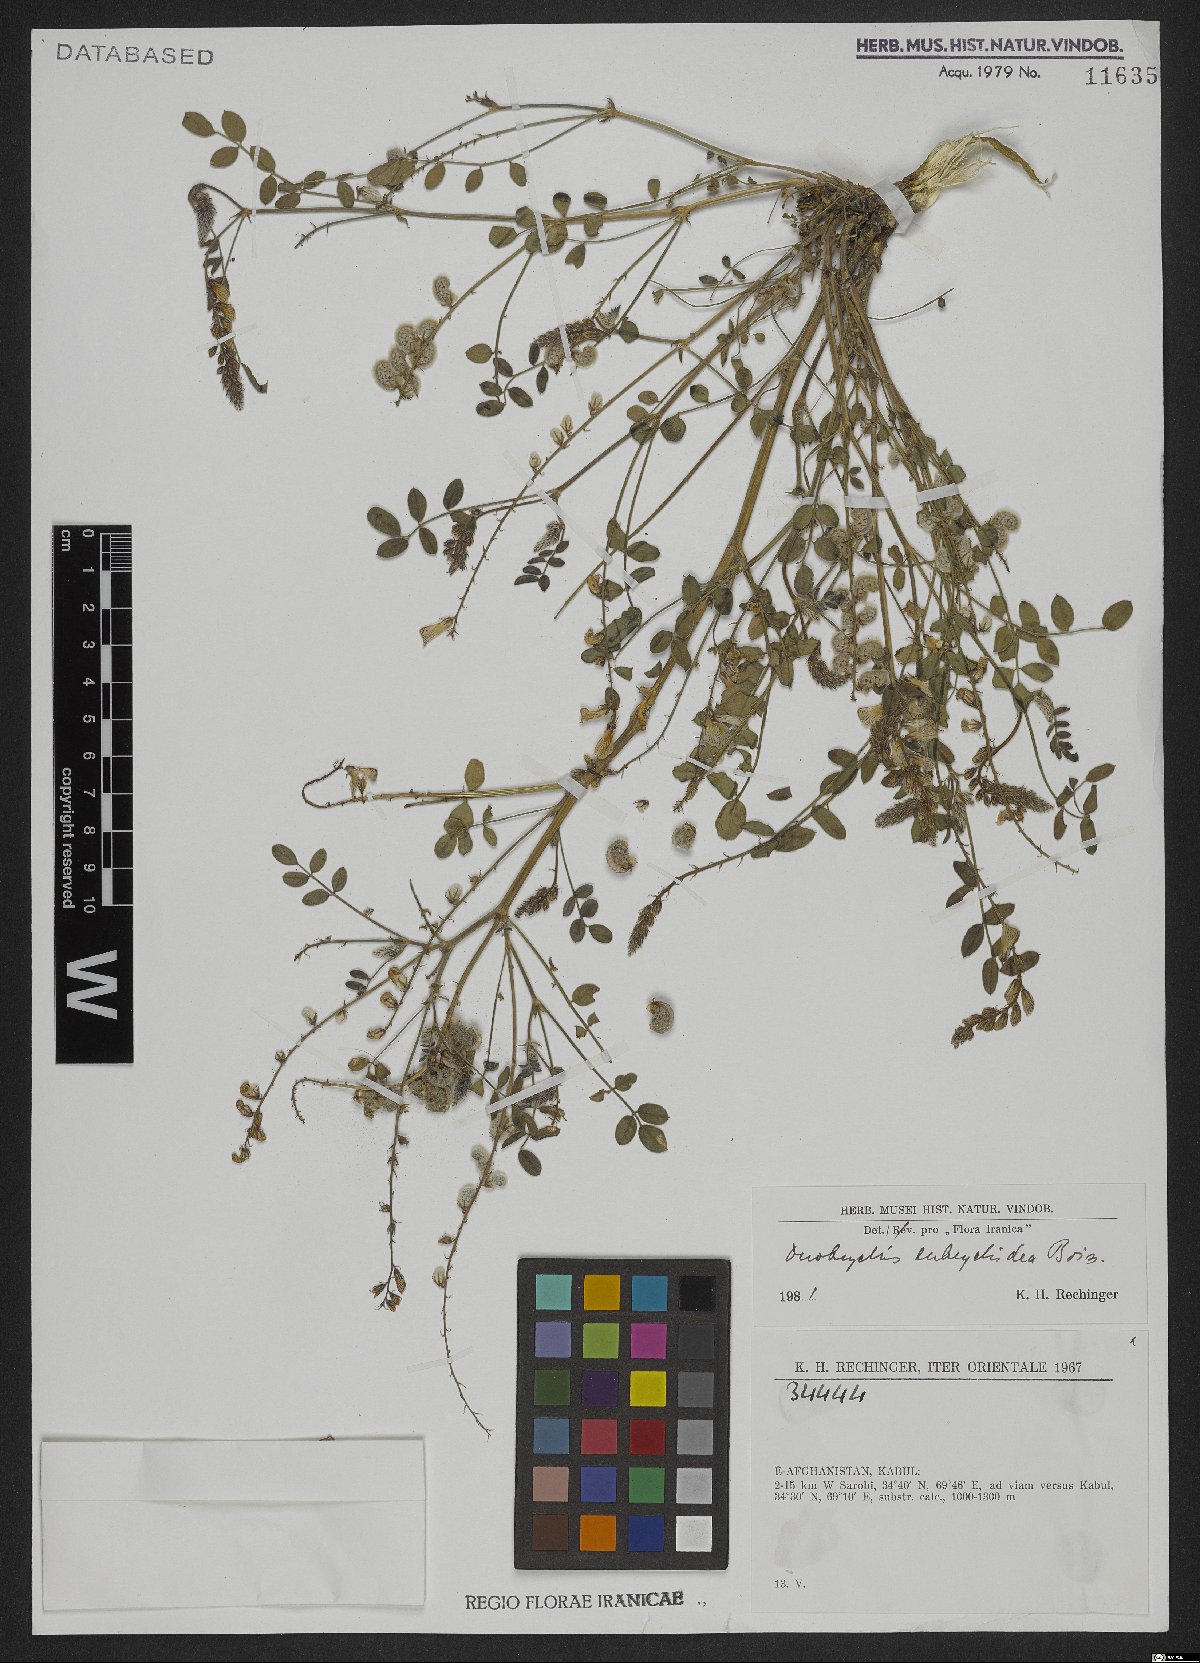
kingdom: Plantae
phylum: Tracheophyta
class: Magnoliopsida
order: Fabales
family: Fabaceae
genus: Onobrychis
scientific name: Onobrychis eubrychidea
